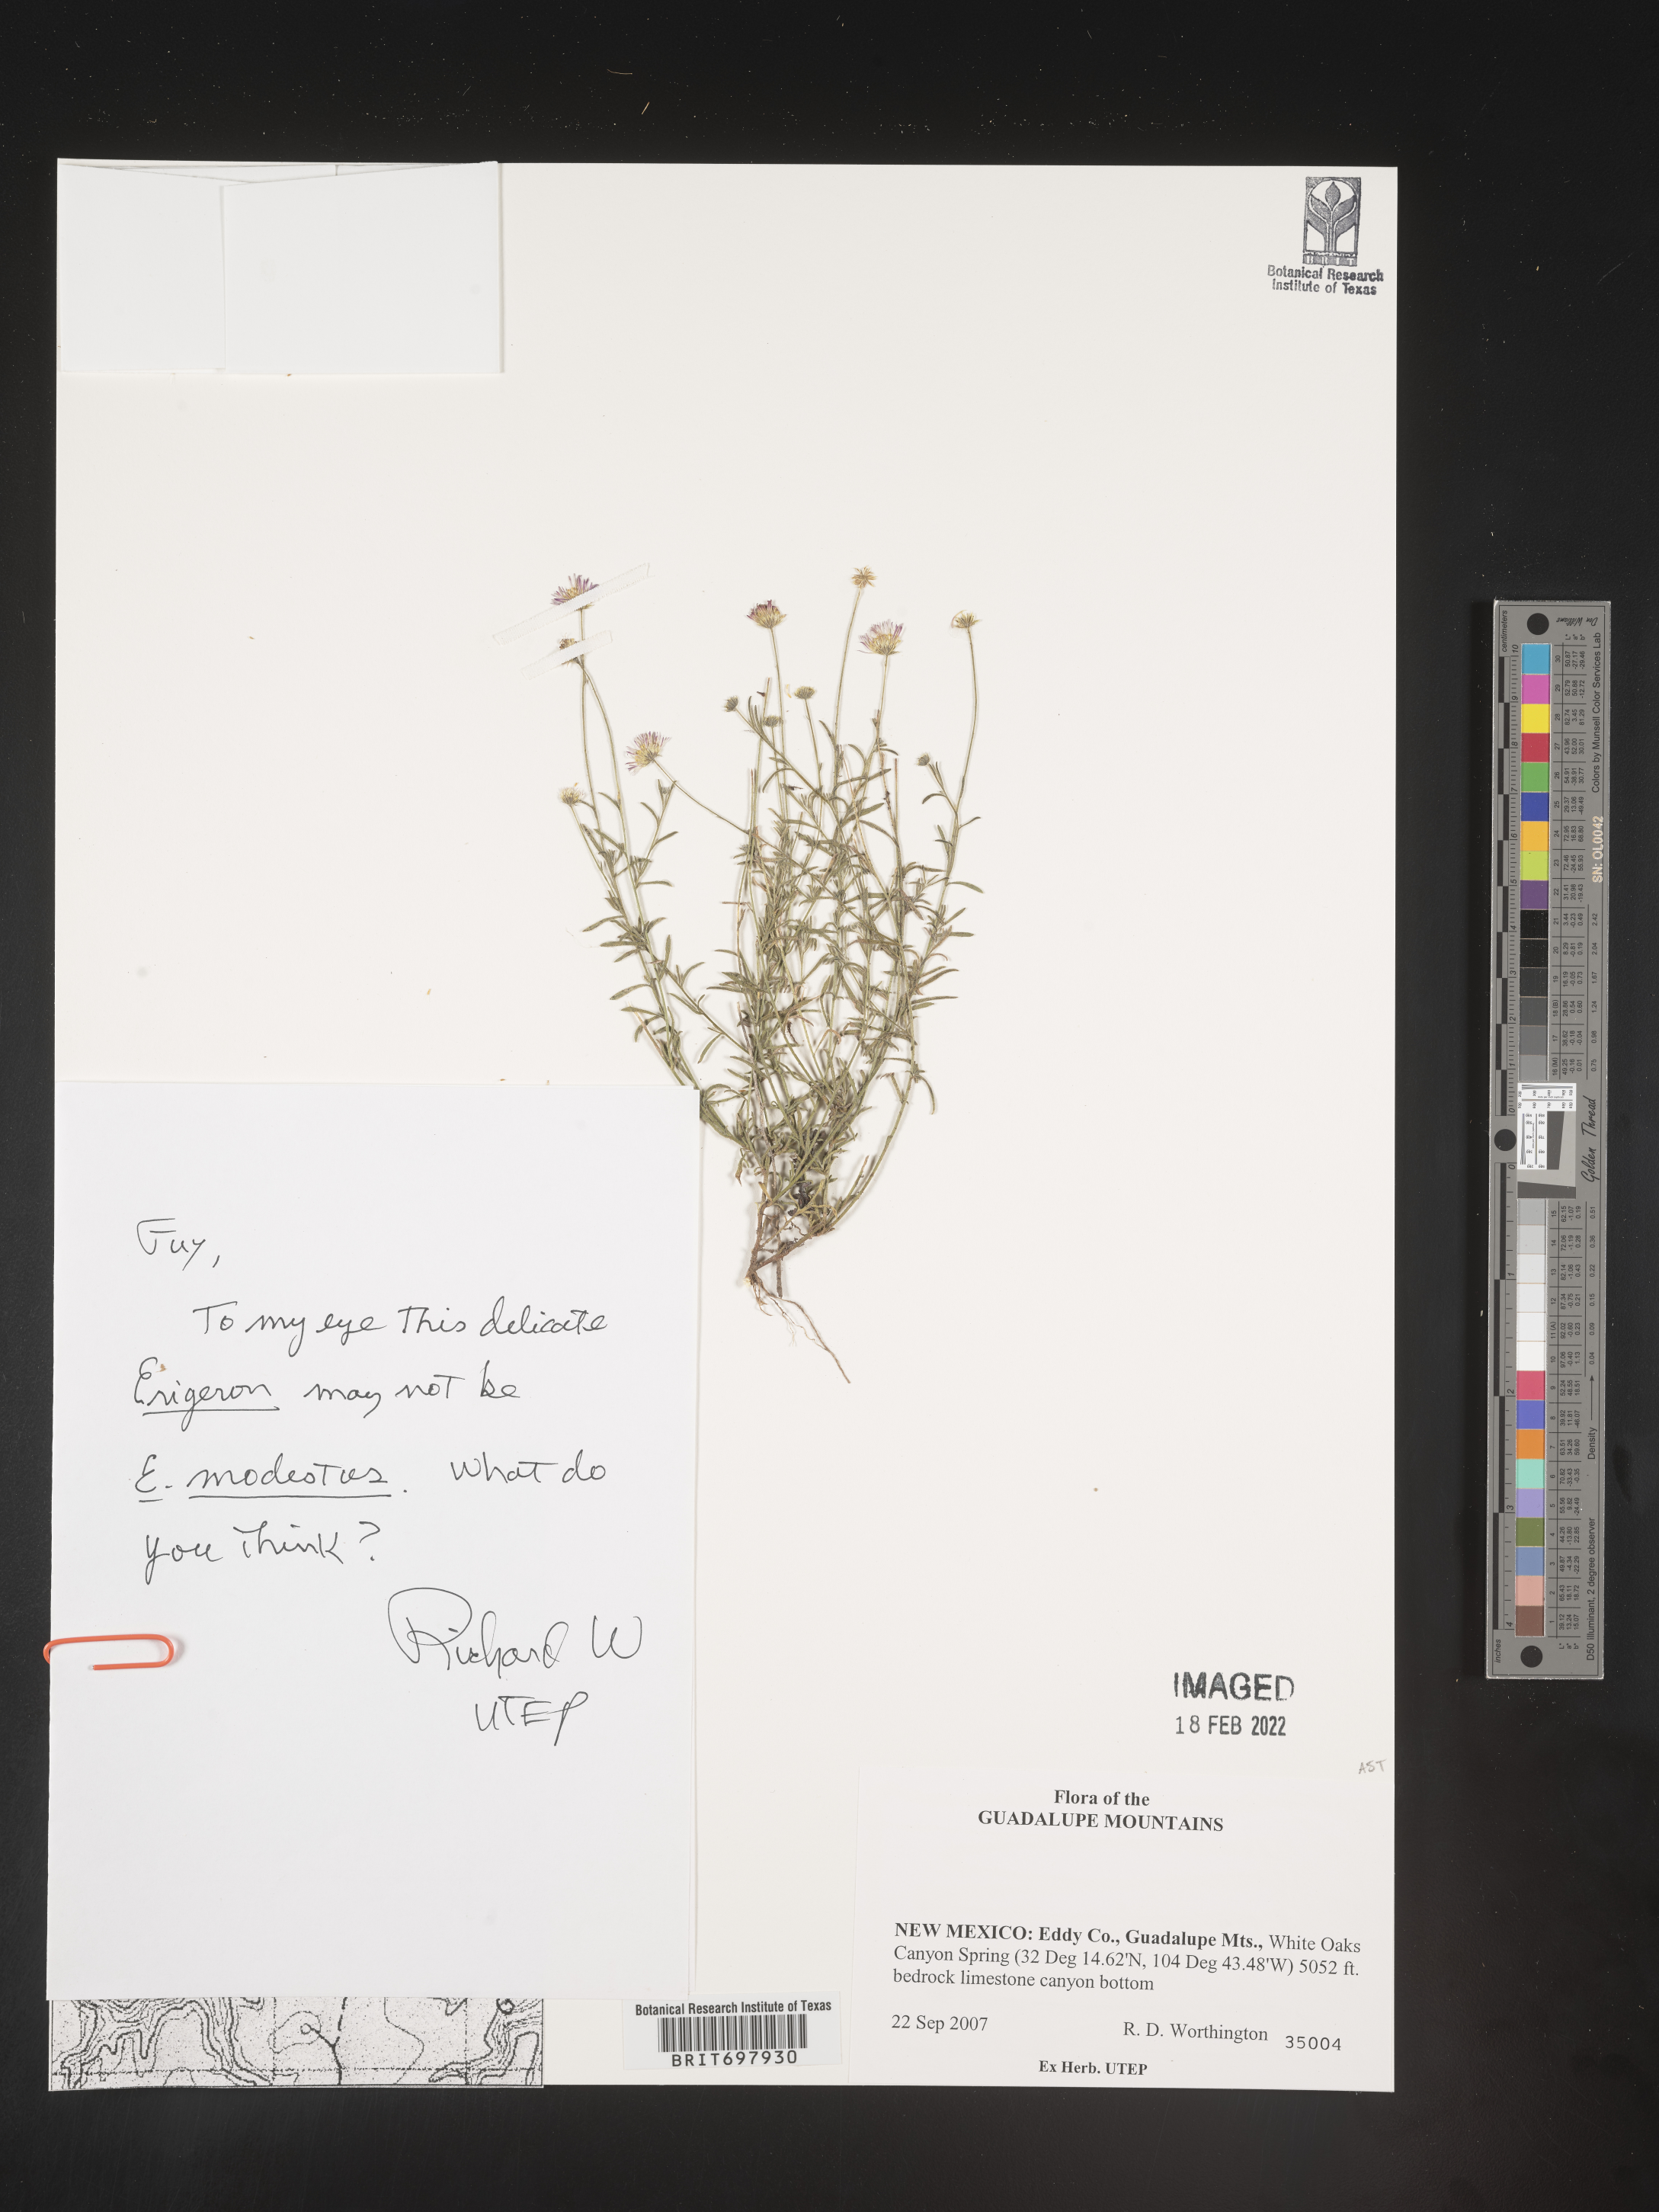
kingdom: Plantae
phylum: Tracheophyta
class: Magnoliopsida
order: Asterales
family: Asteraceae
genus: Erigeron
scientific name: Erigeron modestus
